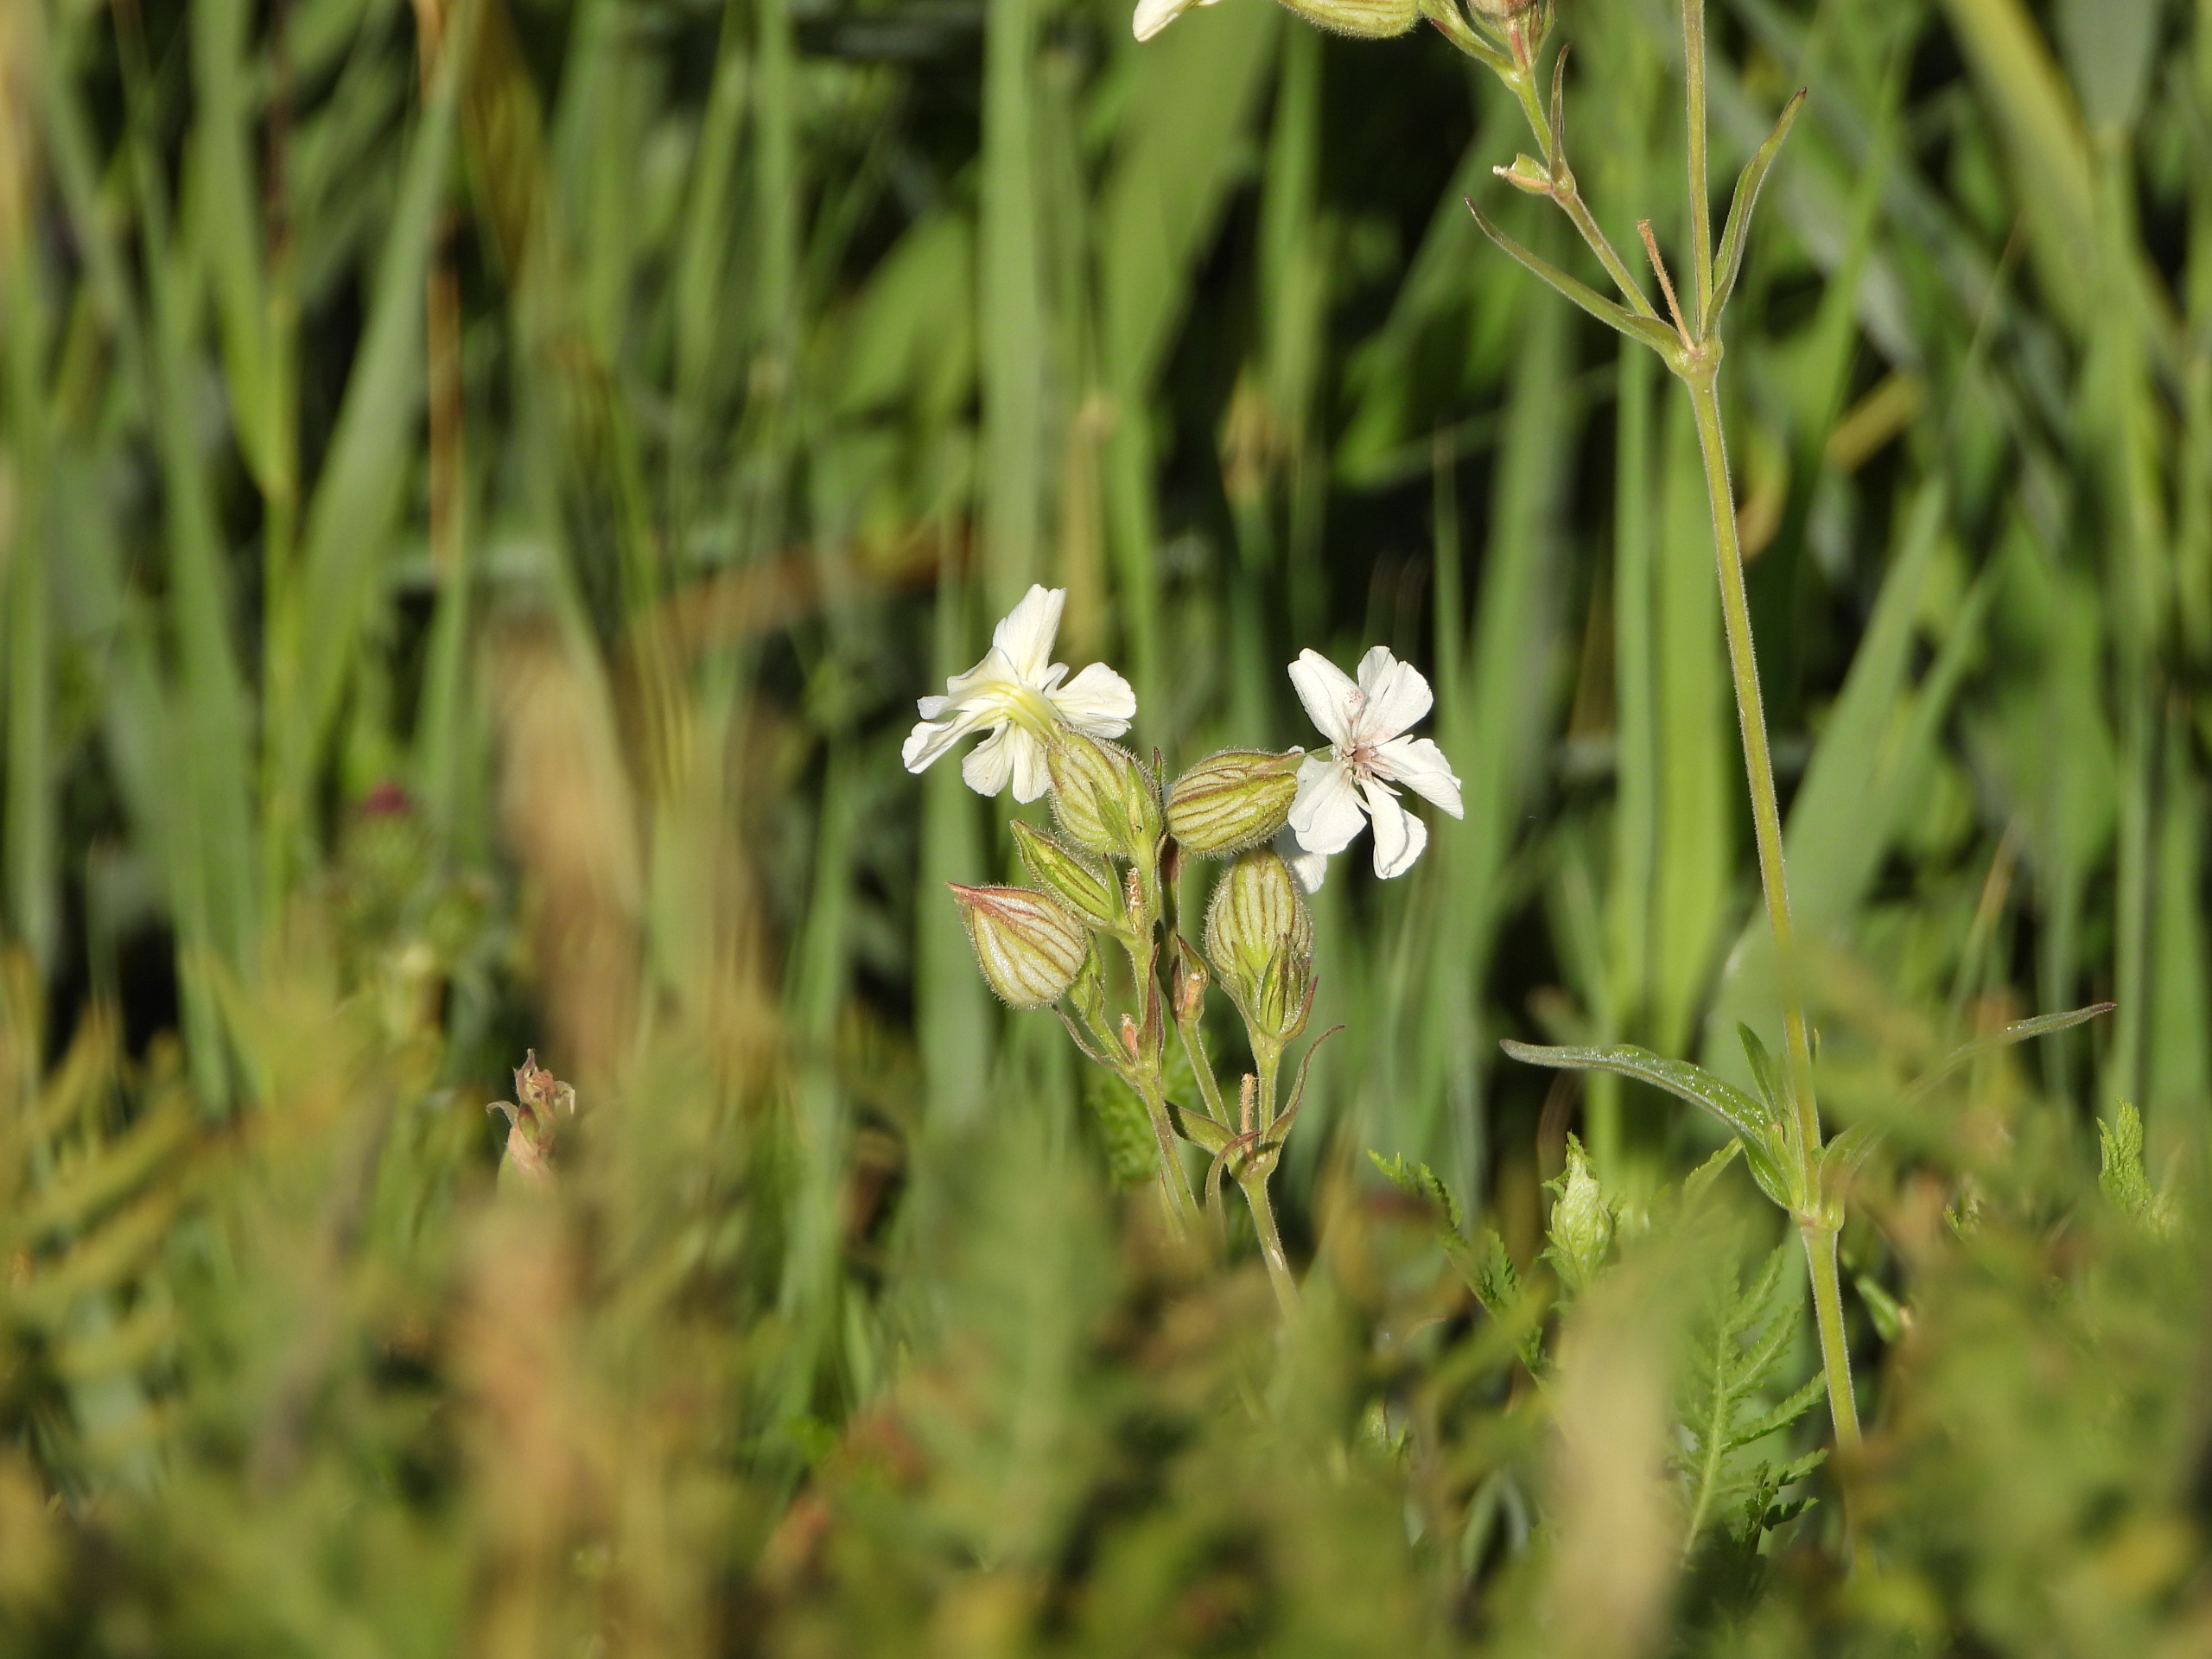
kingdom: Plantae
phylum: Tracheophyta
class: Magnoliopsida
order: Caryophyllales
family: Caryophyllaceae
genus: Silene
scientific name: Silene latifolia
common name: Aftenpragtstjerne
